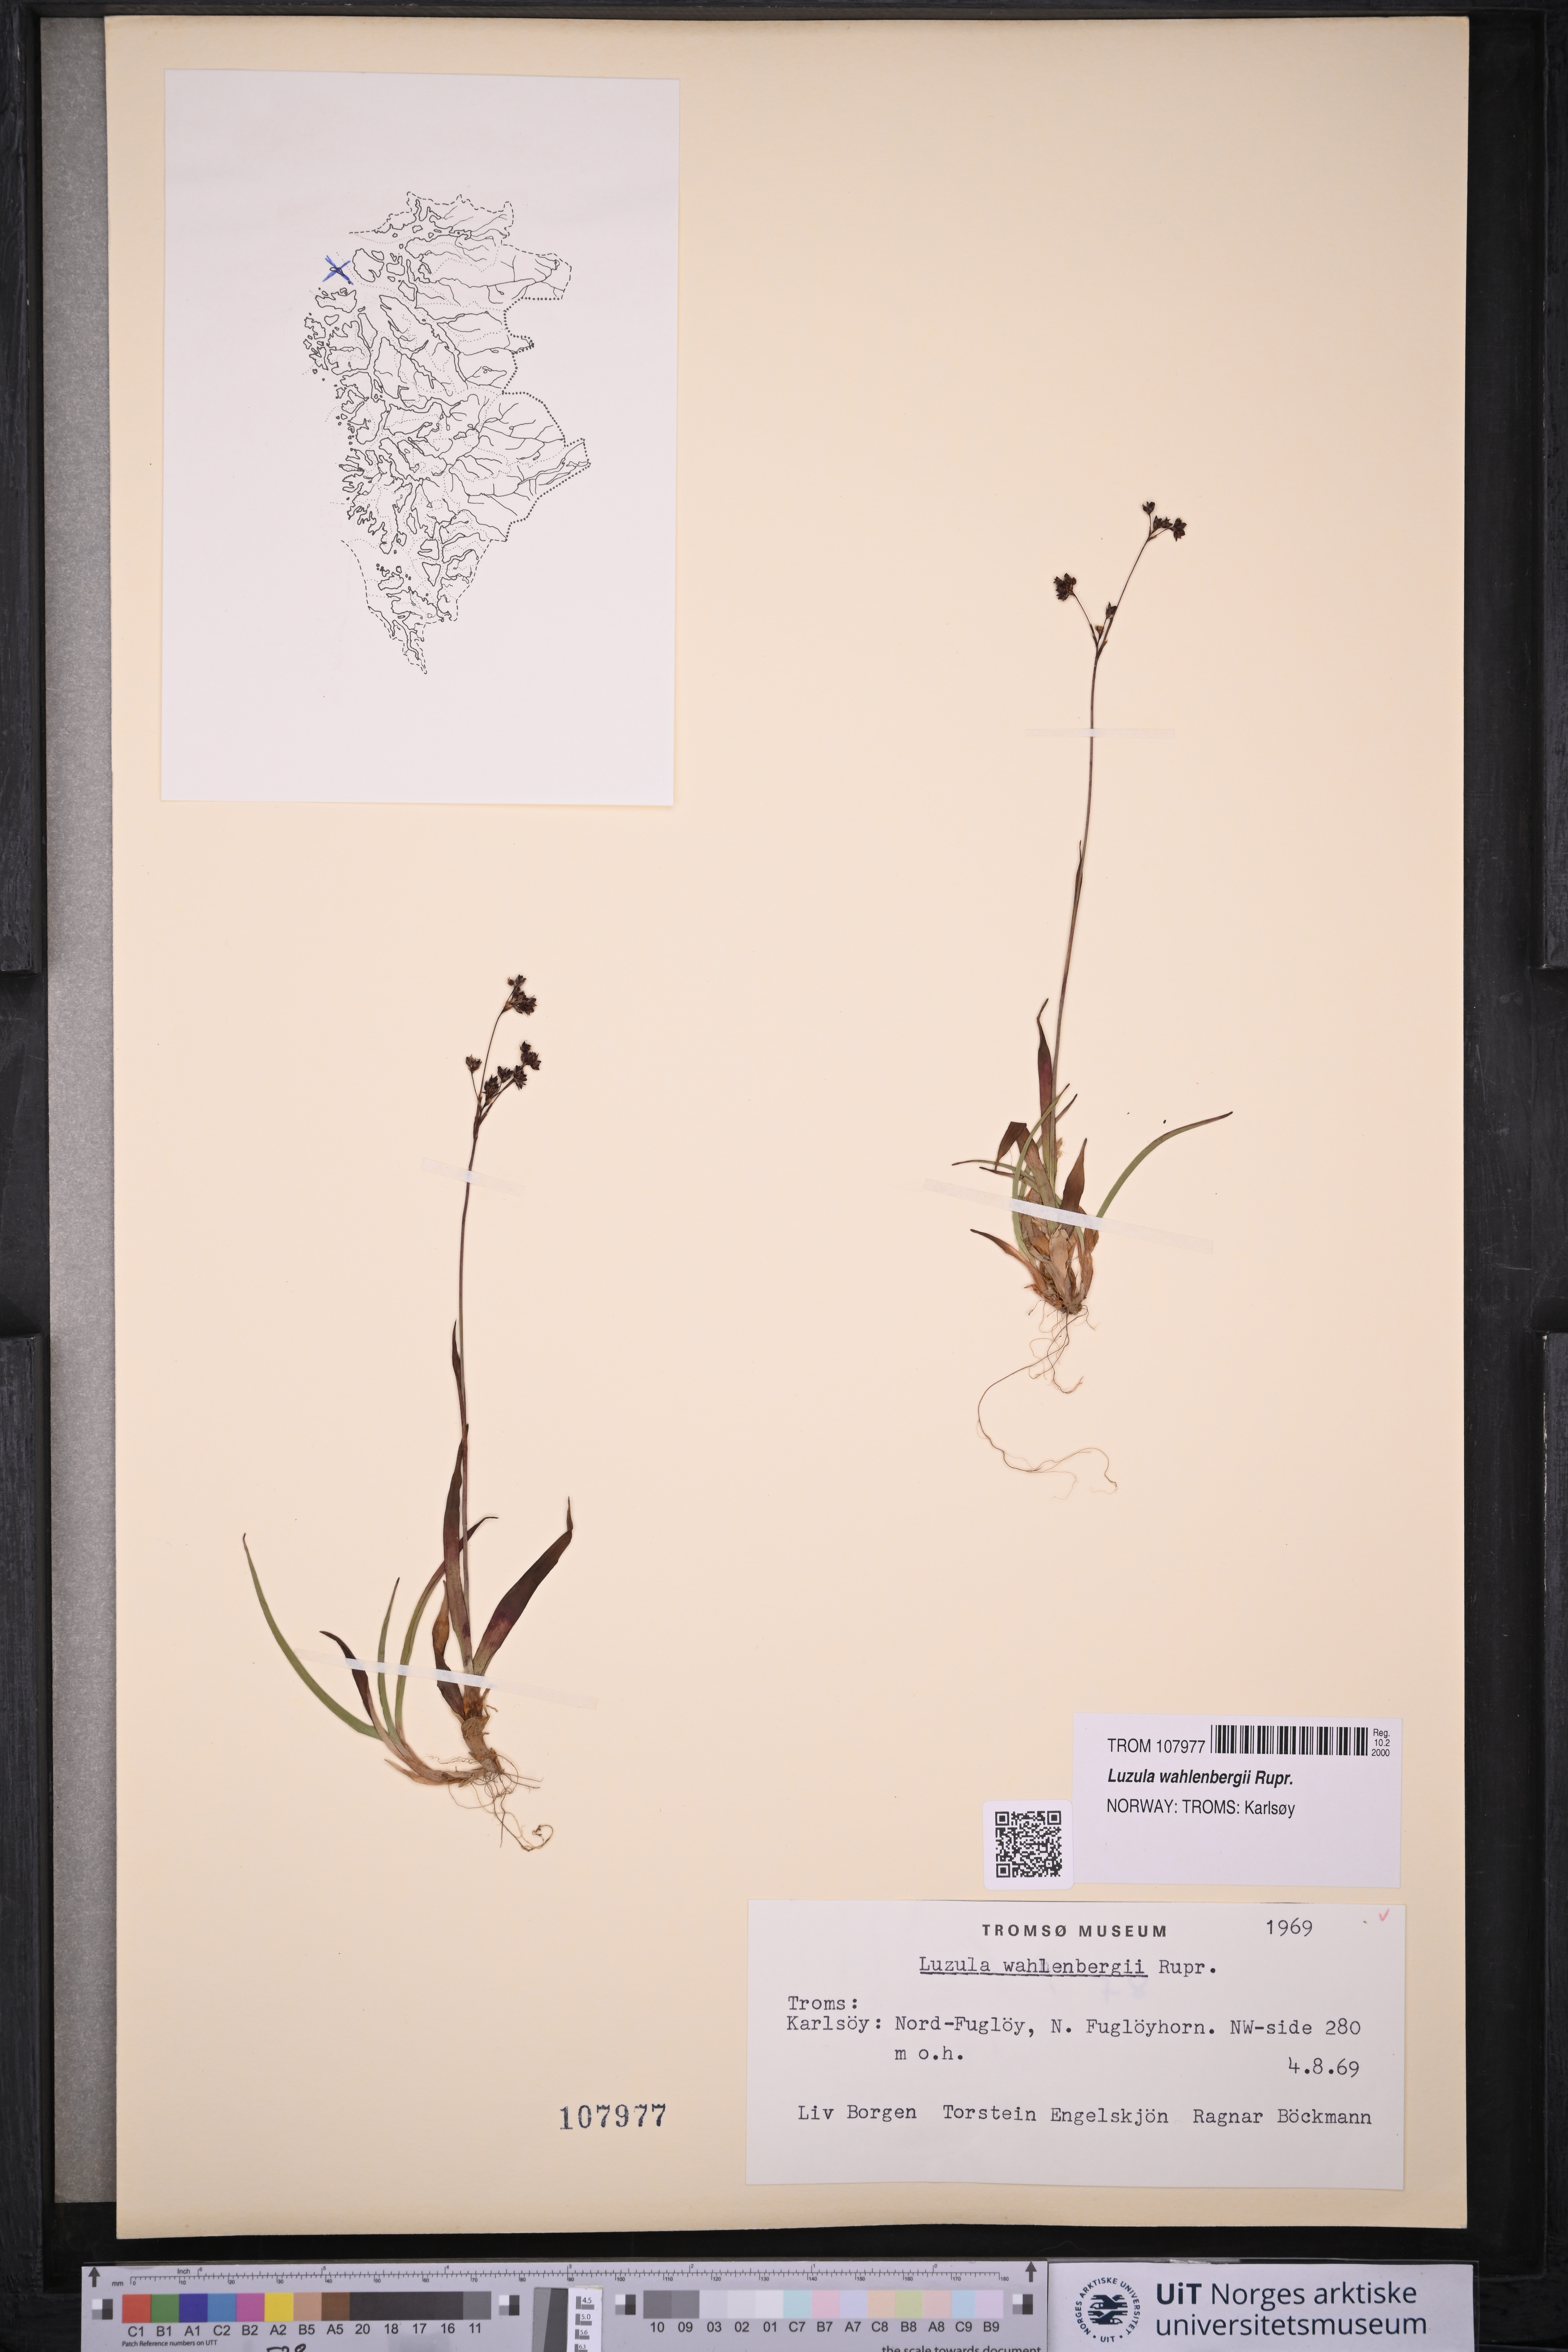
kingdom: Plantae
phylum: Tracheophyta
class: Liliopsida
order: Poales
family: Juncaceae
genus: Luzula
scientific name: Luzula wahlenbergii
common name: Wahlenberg's wood-rush
